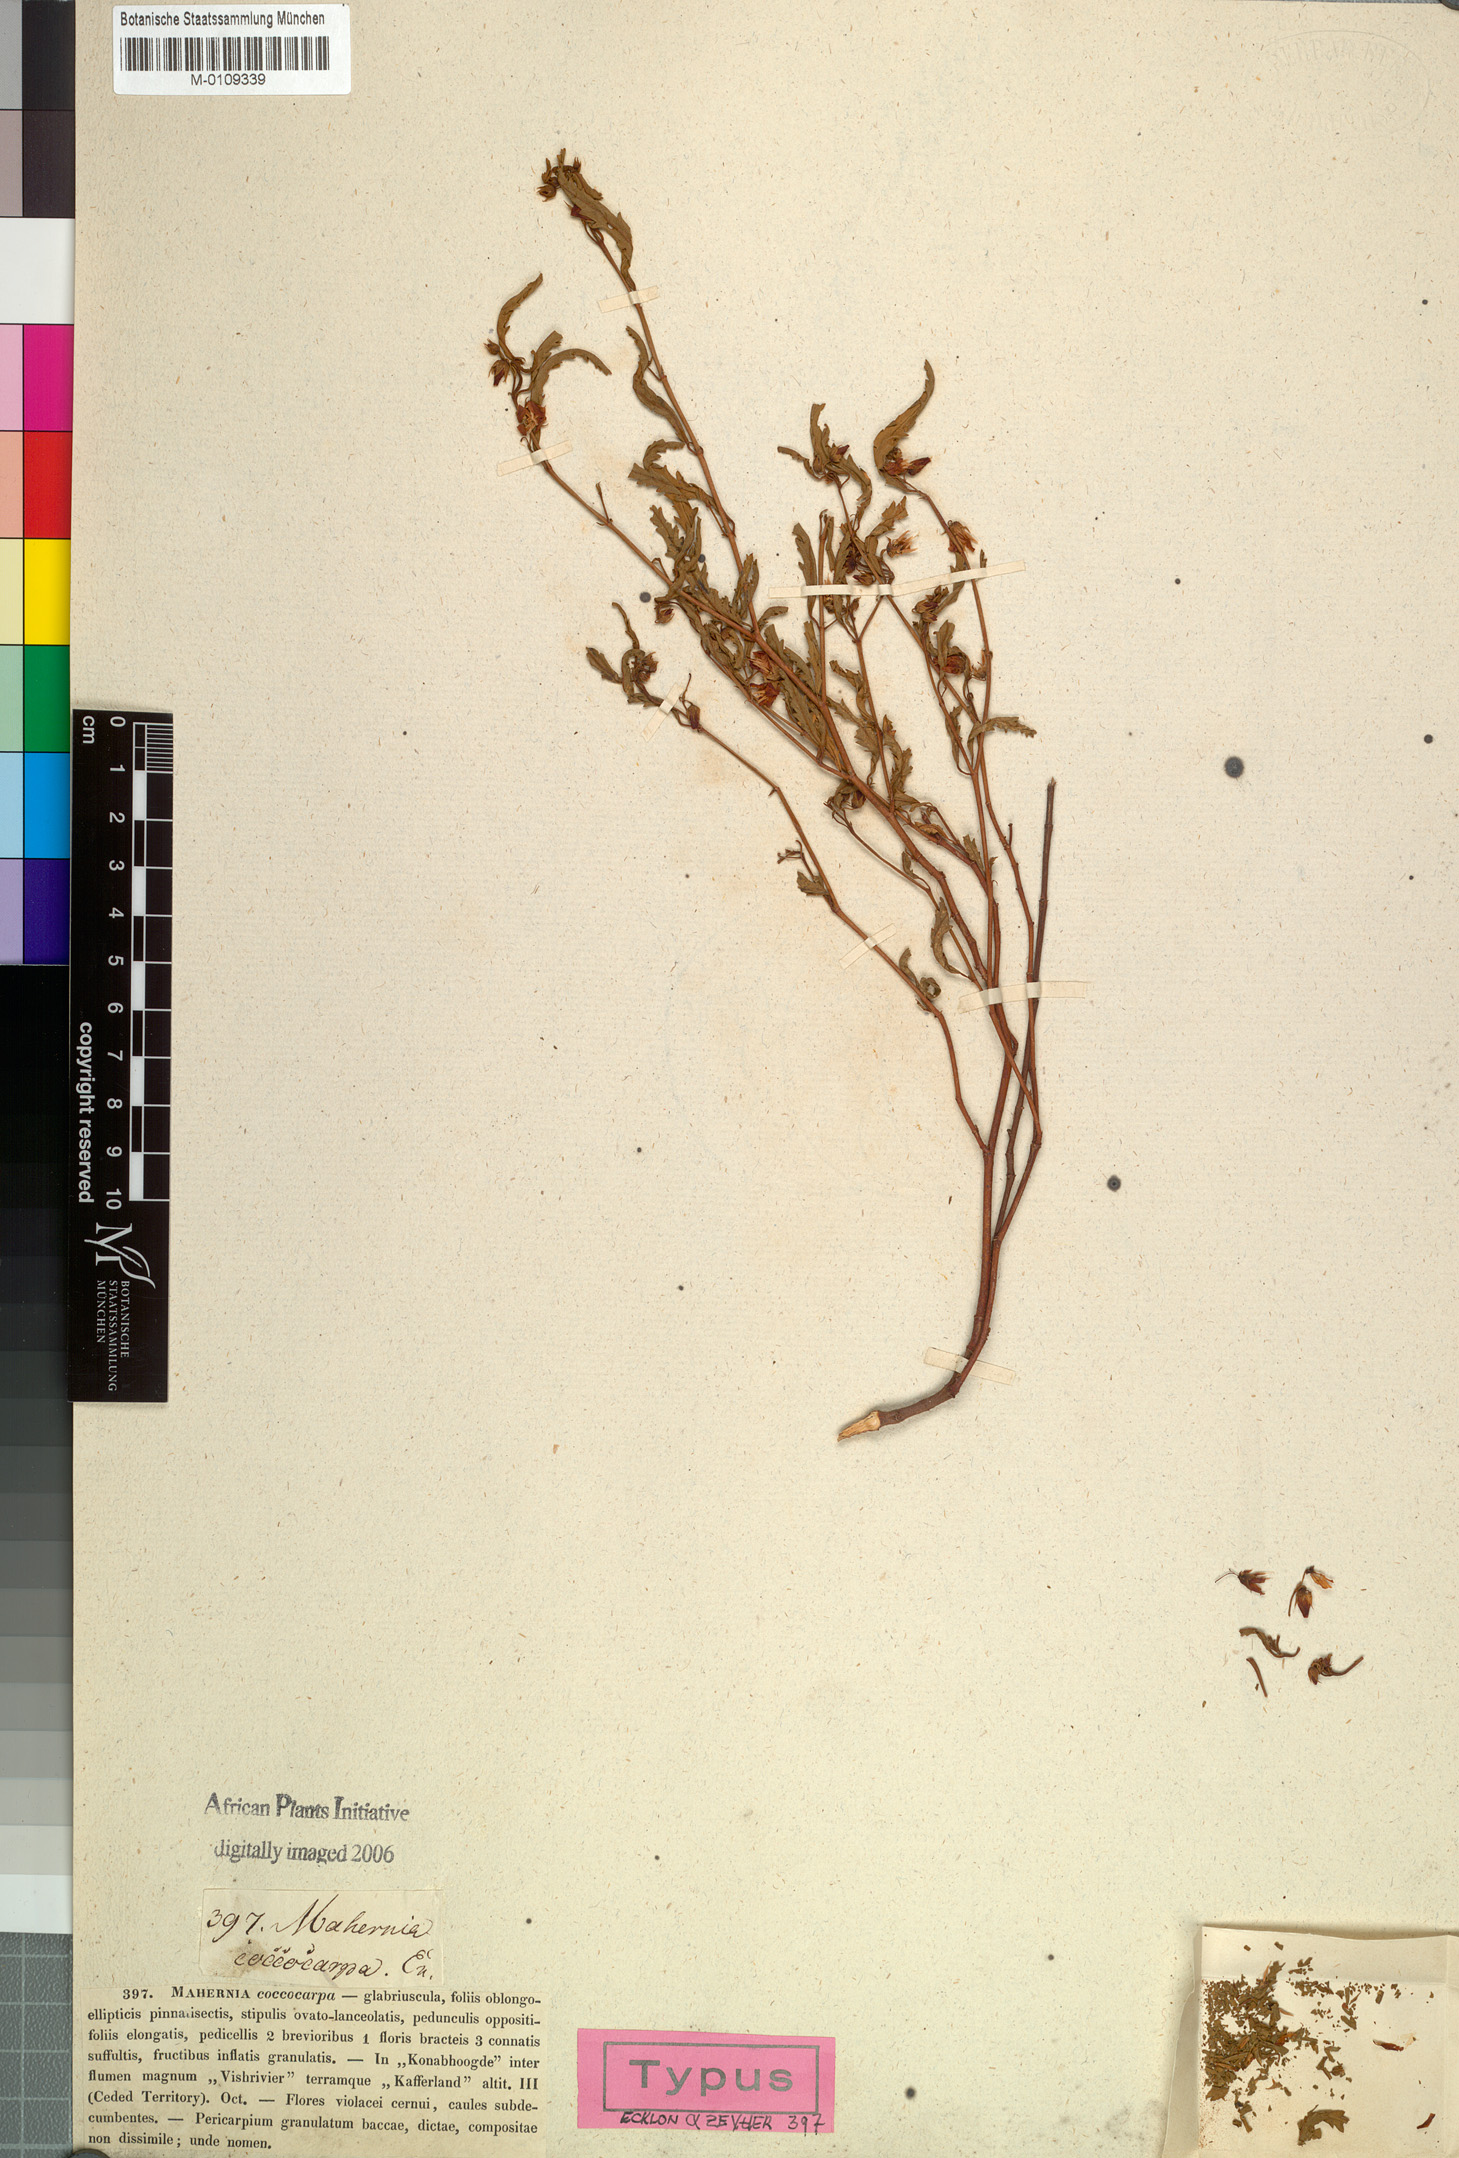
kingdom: Plantae
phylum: Tracheophyta
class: Magnoliopsida
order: Malvales
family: Malvaceae
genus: Hermannia
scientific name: Hermannia coccocarpa
